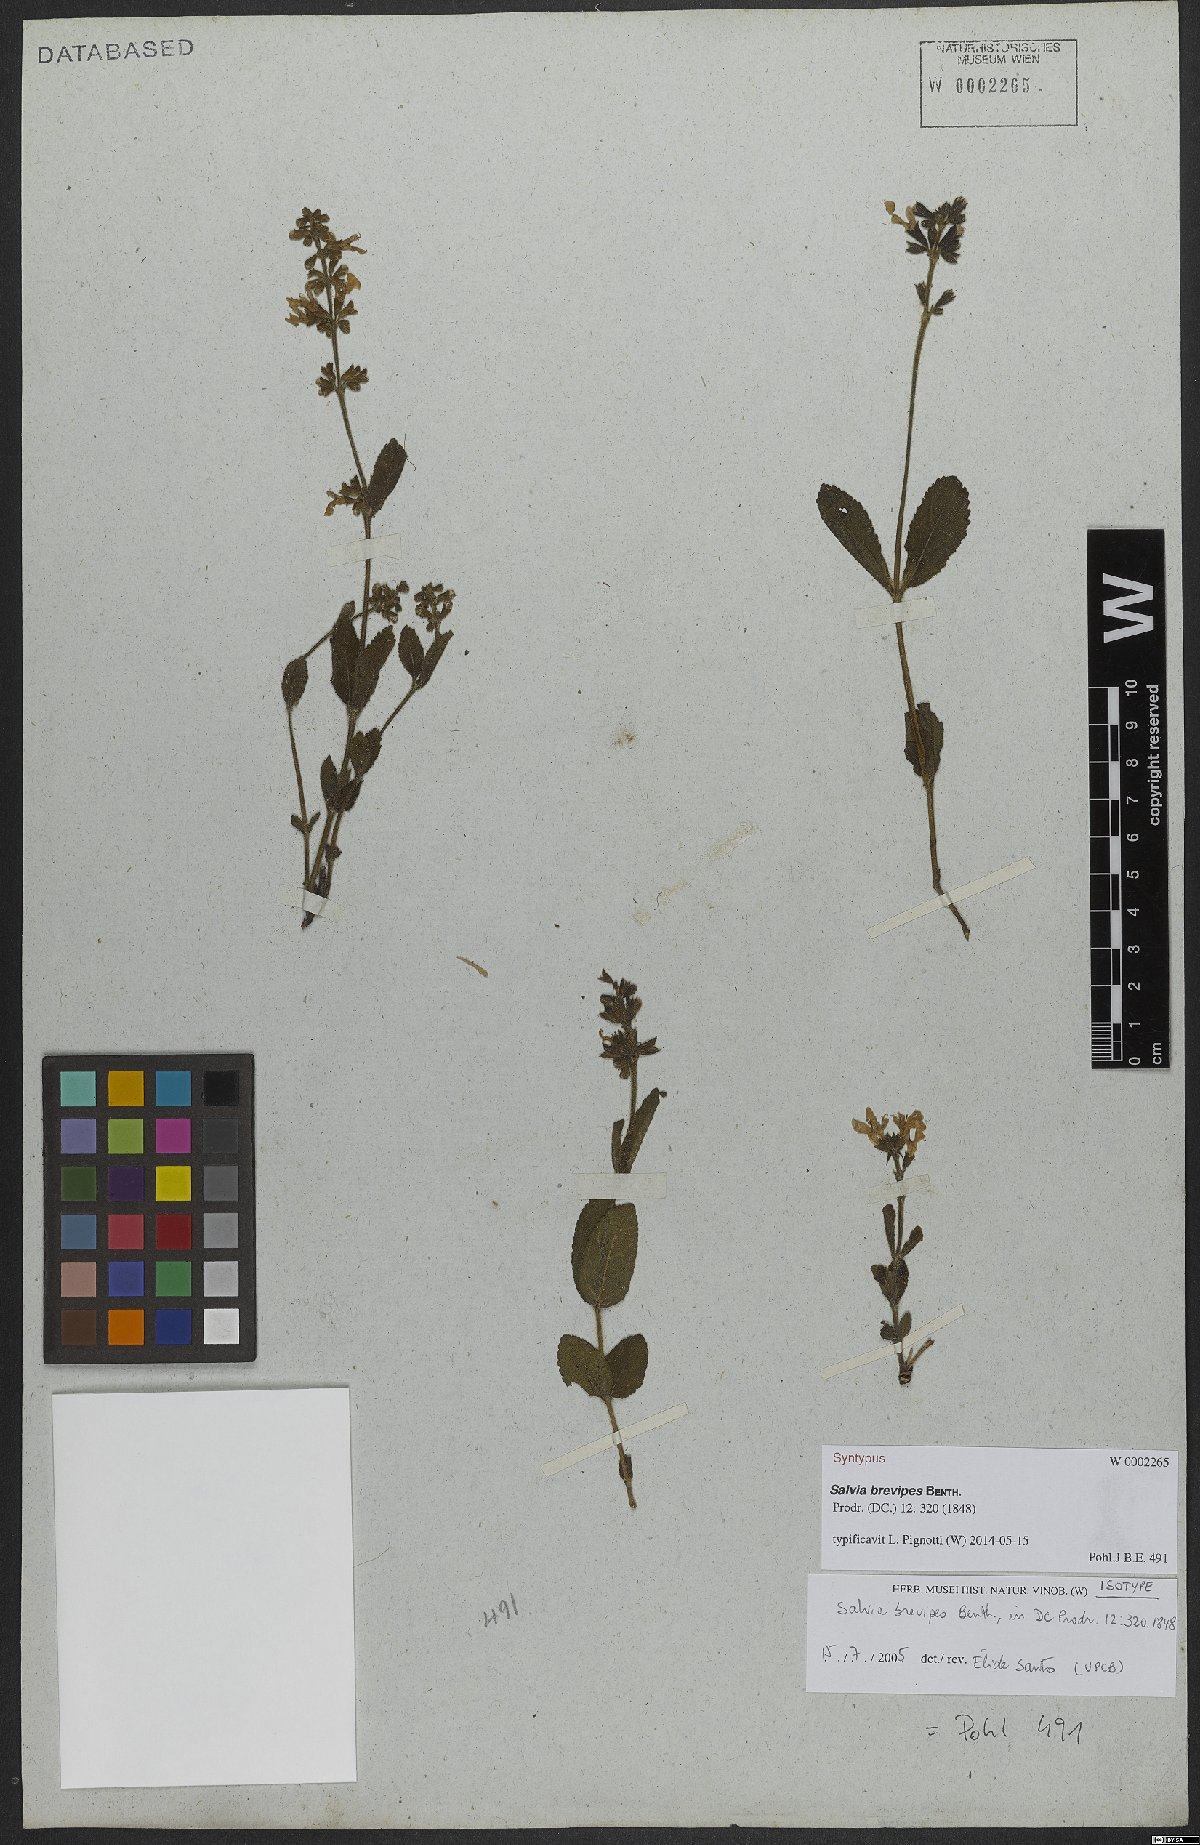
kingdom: Plantae
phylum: Tracheophyta
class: Magnoliopsida
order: Lamiales
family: Lamiaceae
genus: Salvia
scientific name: Salvia brevipes
